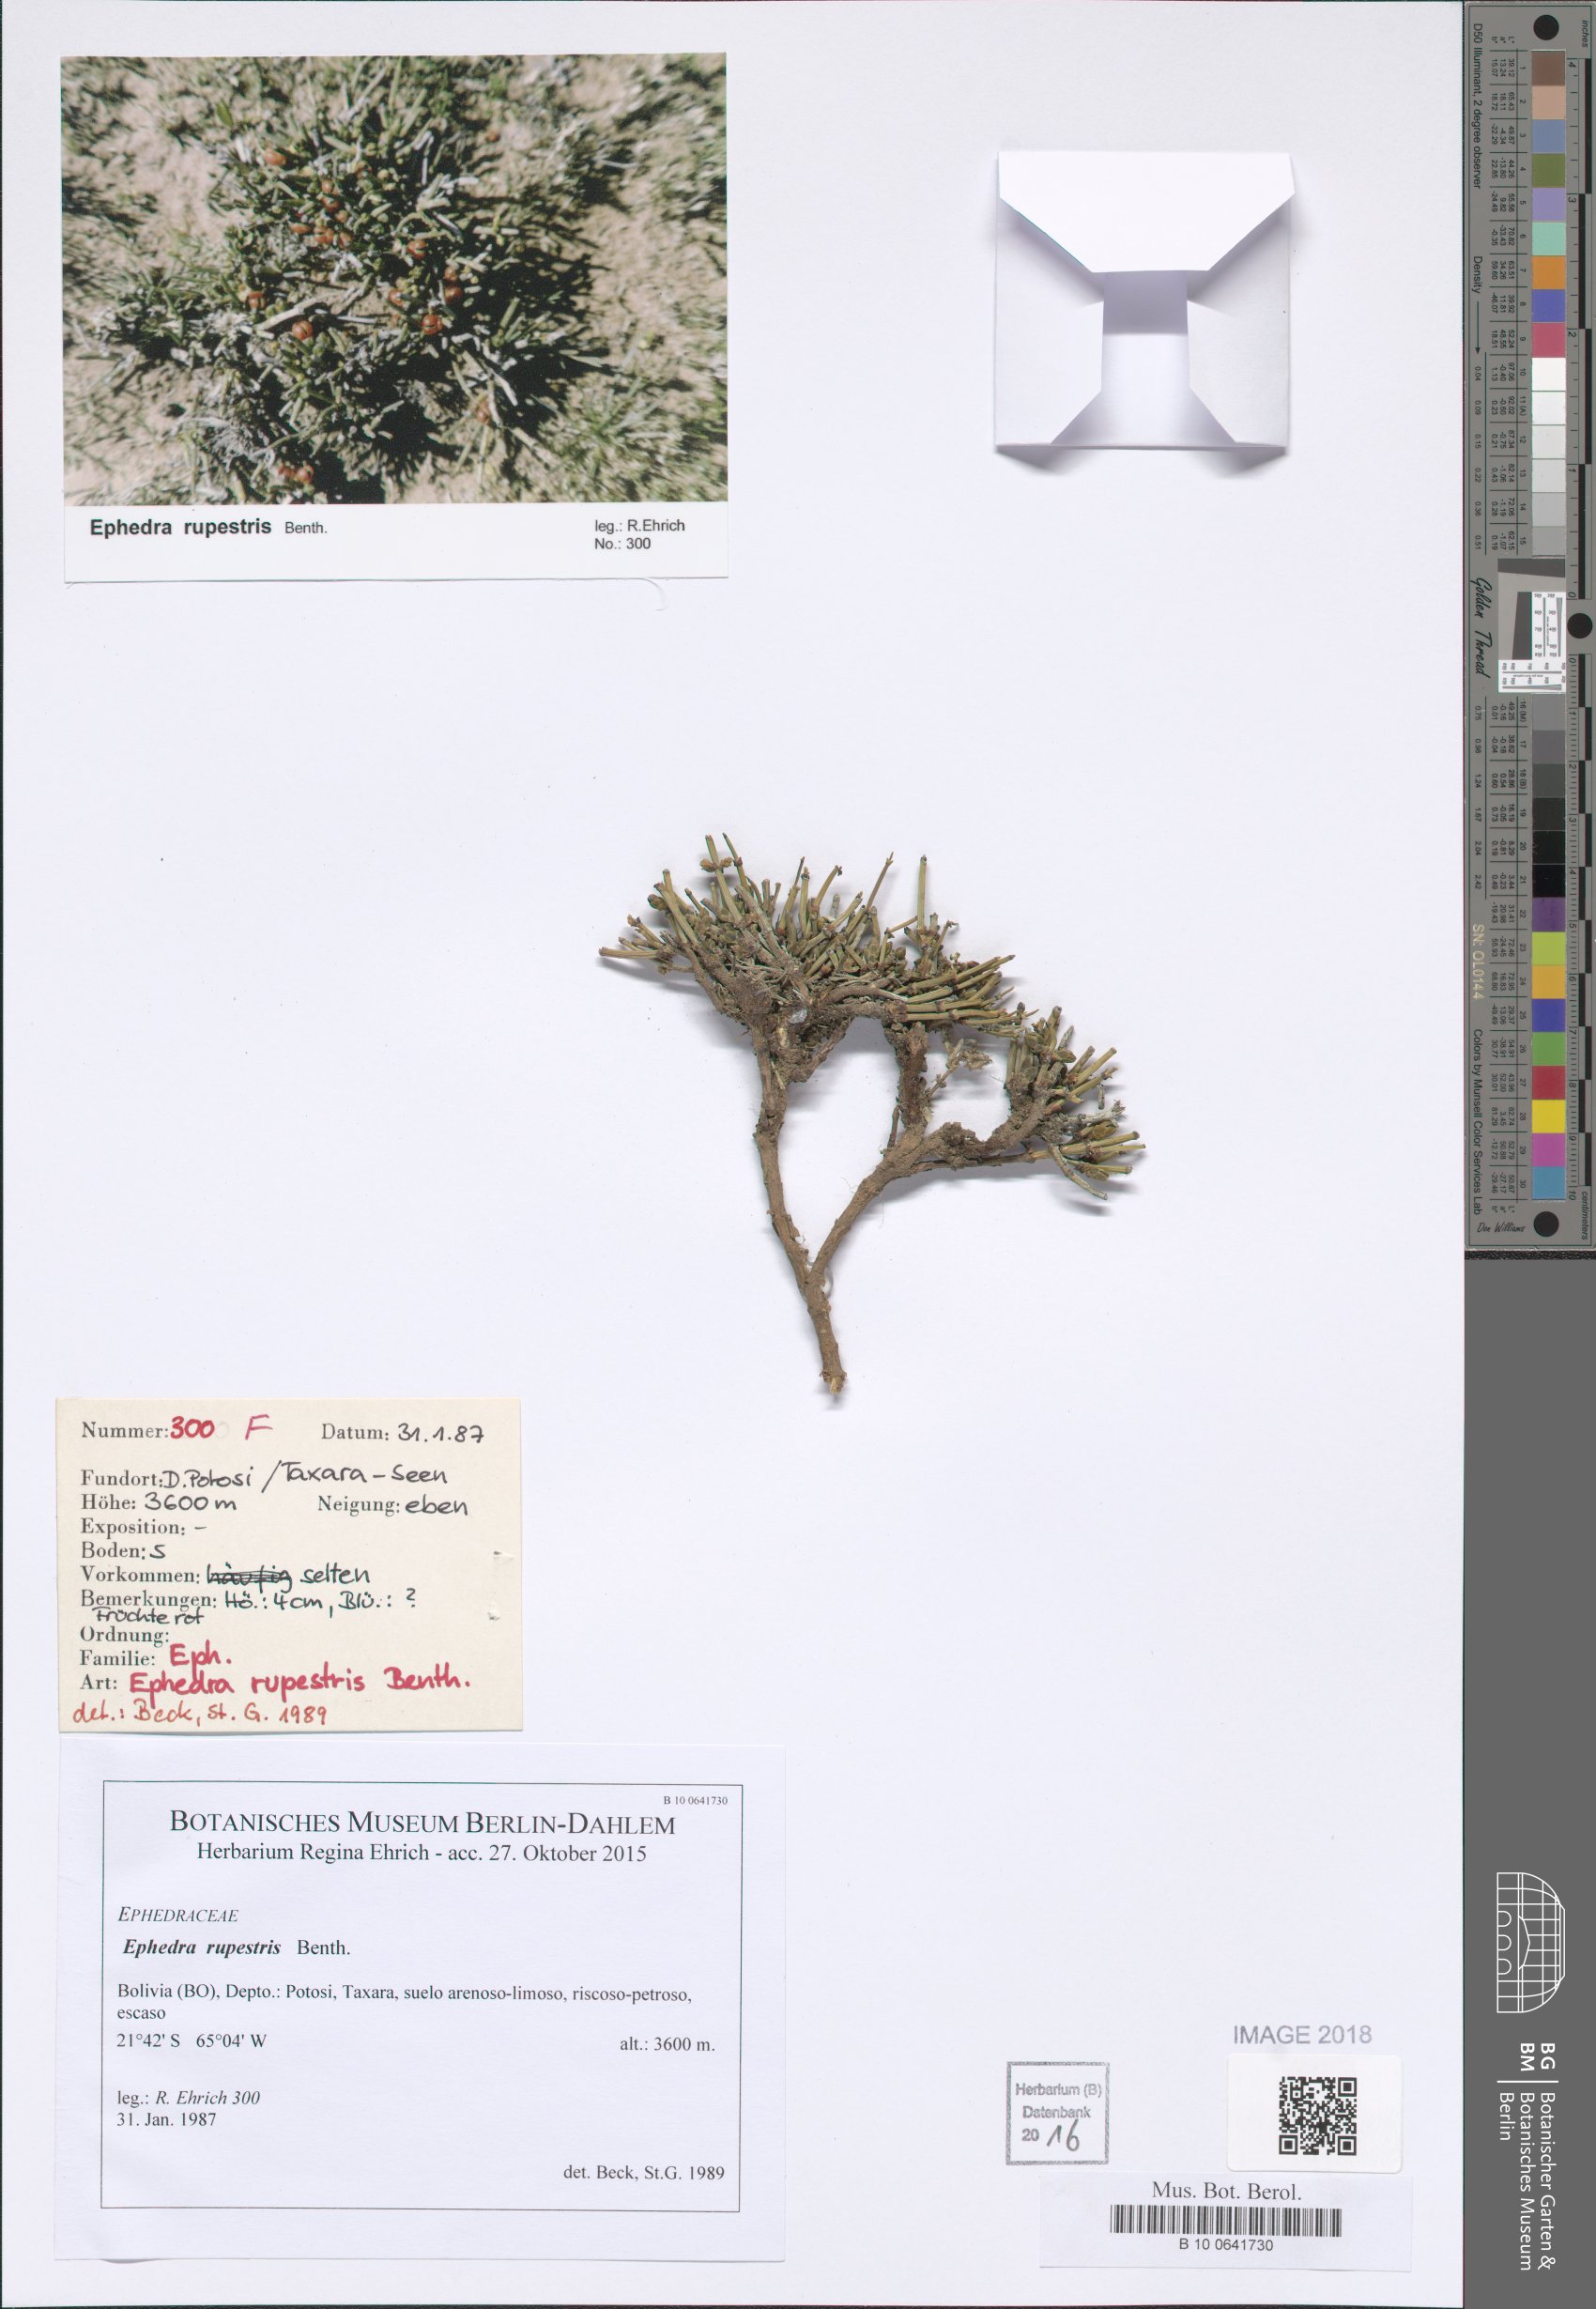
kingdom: Plantae
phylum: Tracheophyta
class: Gnetopsida
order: Ephedrales
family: Ephedraceae
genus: Ephedra
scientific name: Ephedra rupestris
